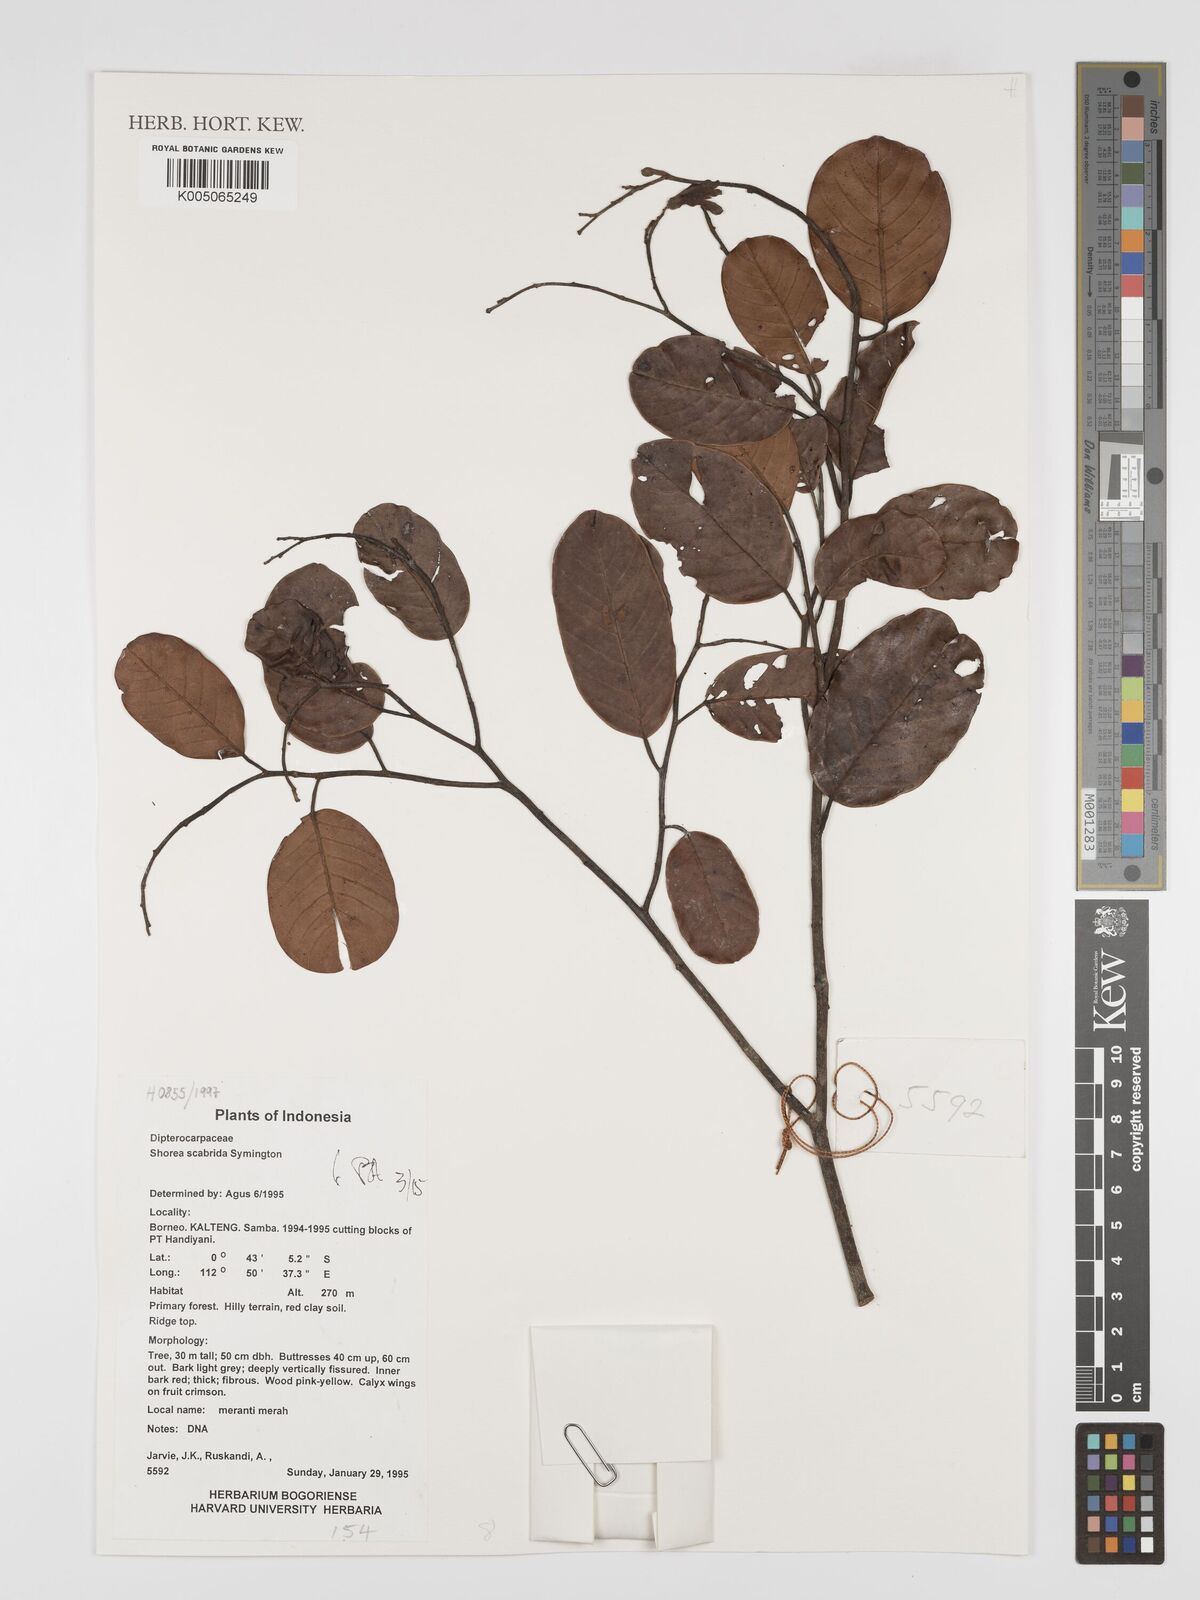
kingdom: Plantae
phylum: Tracheophyta
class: Magnoliopsida
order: Malvales
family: Dipterocarpaceae
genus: Shorea
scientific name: Shorea scabrida
